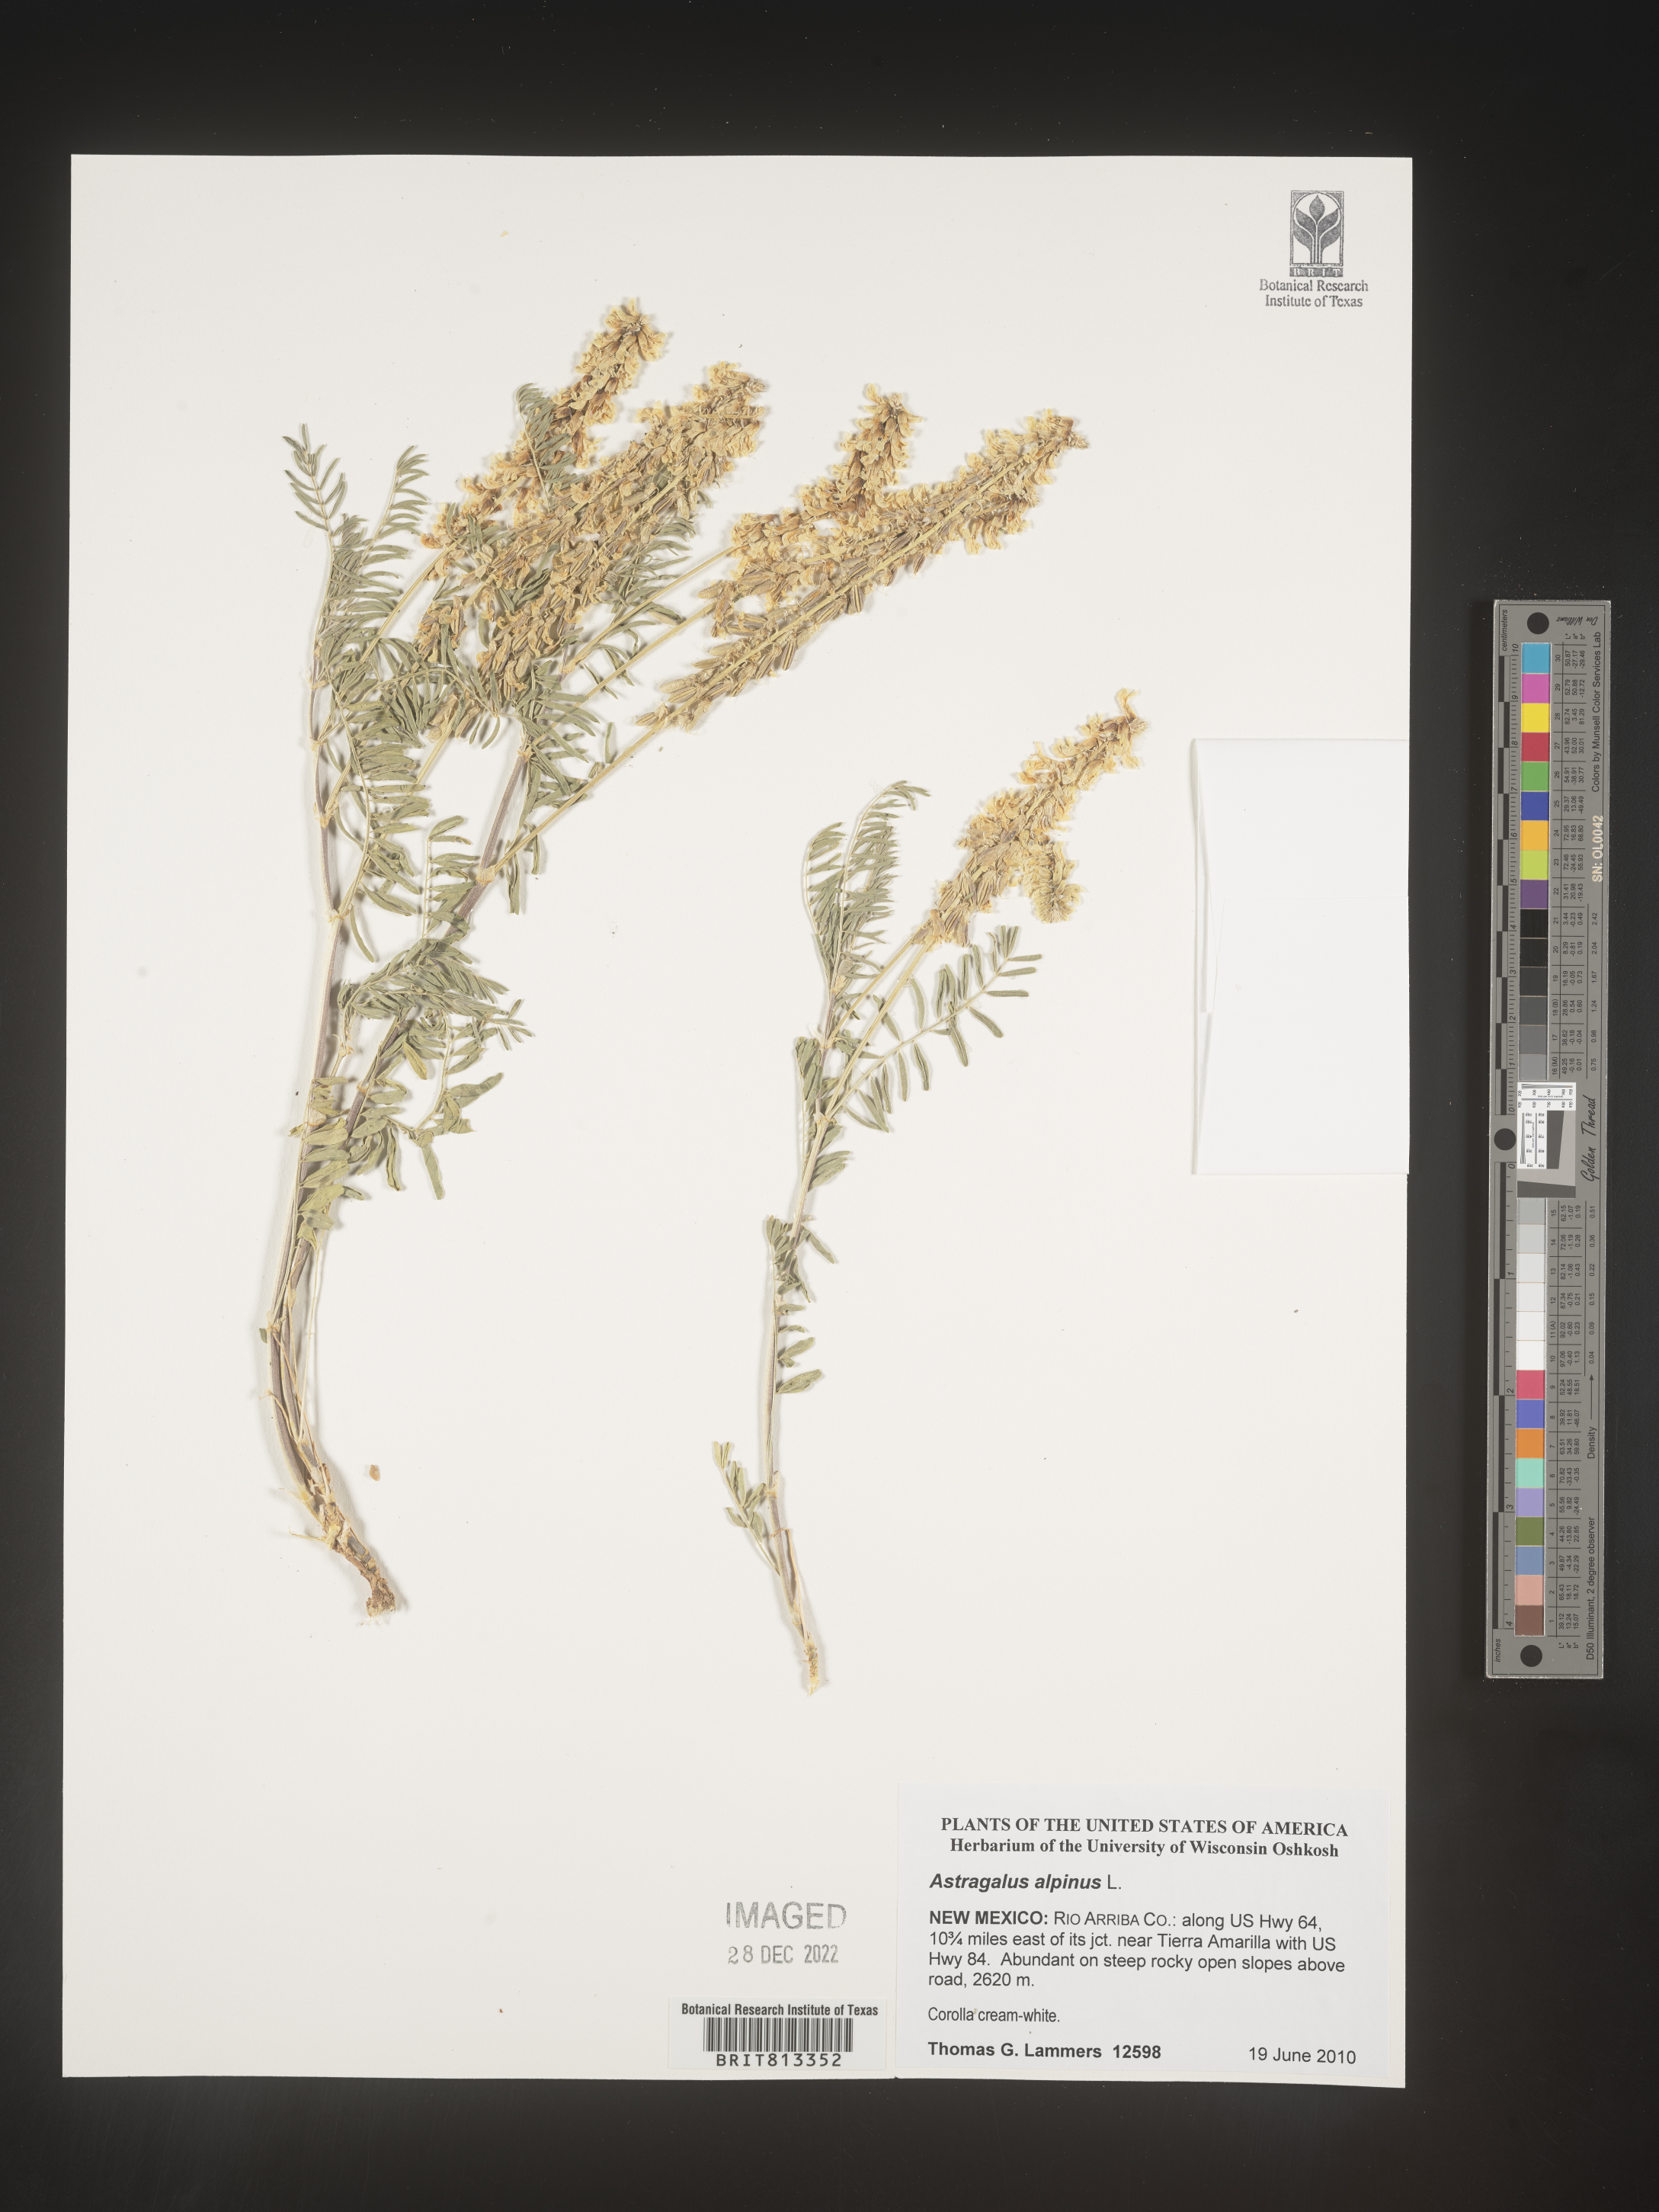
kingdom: Plantae
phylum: Tracheophyta
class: Magnoliopsida
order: Fabales
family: Fabaceae
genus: Astragalus
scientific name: Astragalus alpinus
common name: Alpine milk-vetch
